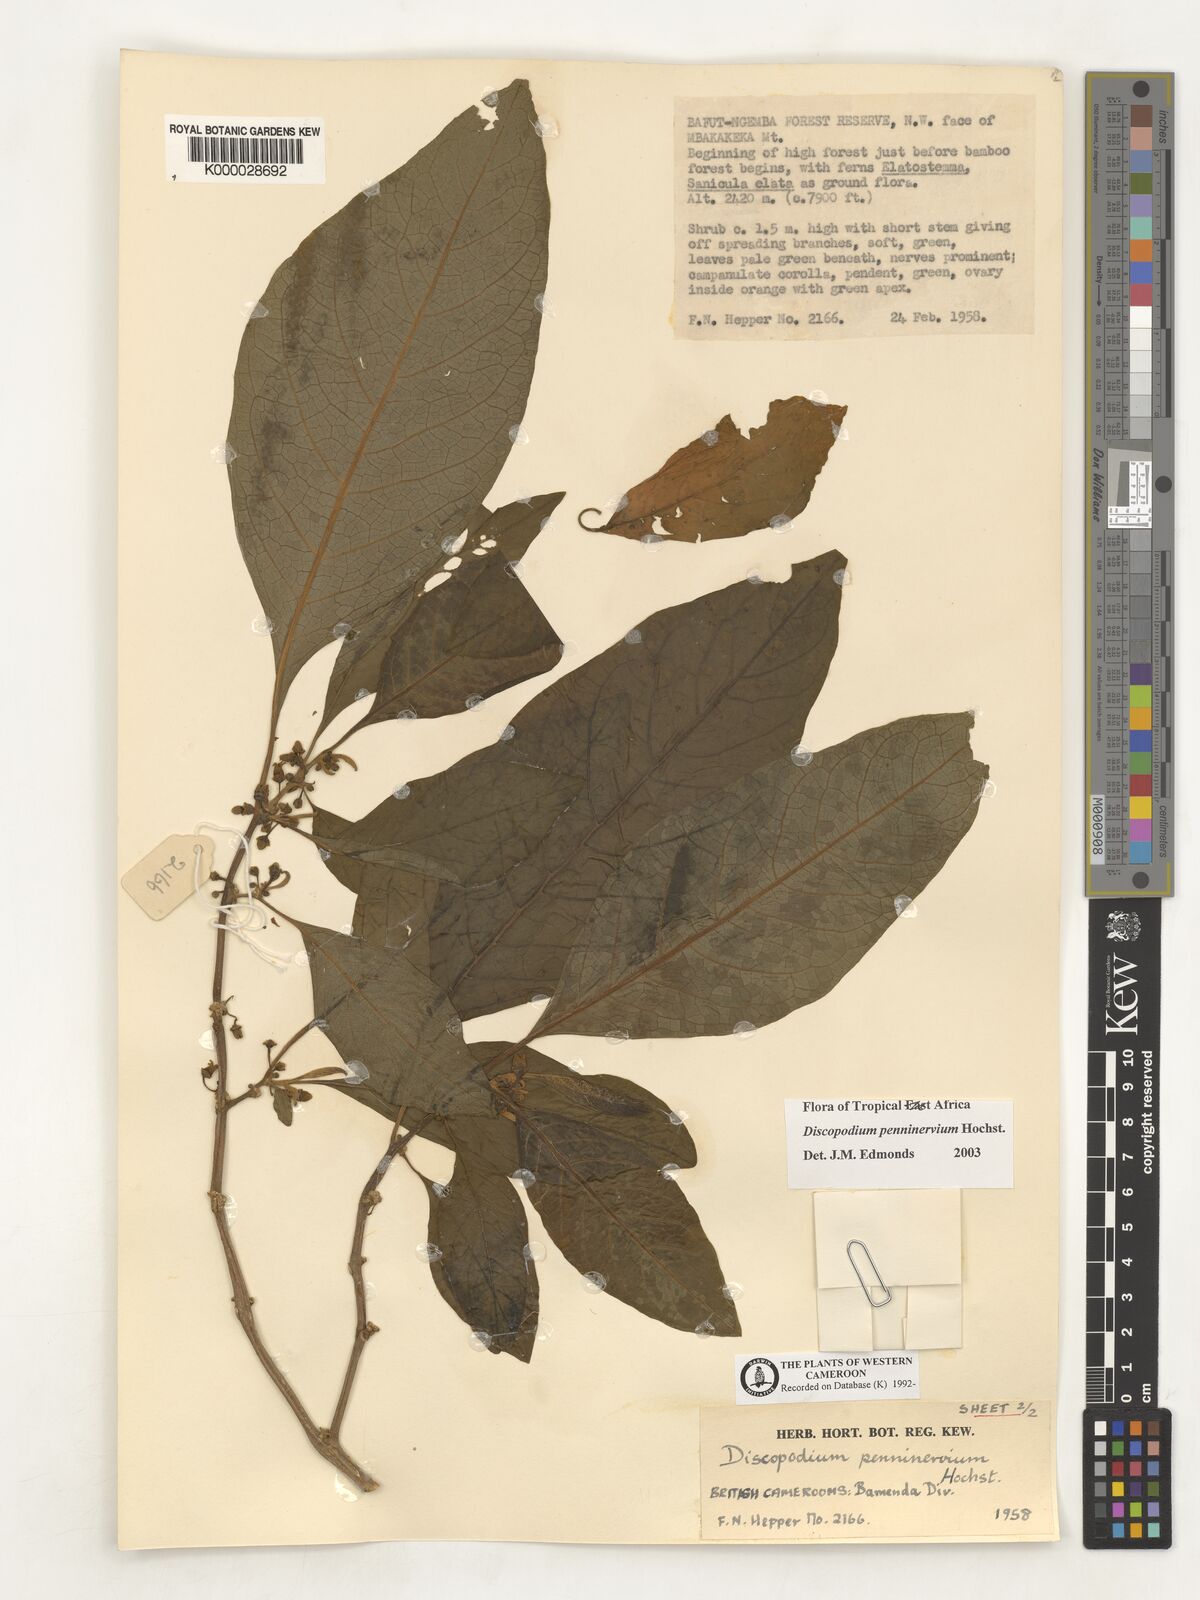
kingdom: Plantae
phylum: Tracheophyta
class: Magnoliopsida
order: Solanales
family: Solanaceae
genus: Discopodium
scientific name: Discopodium penninervium
